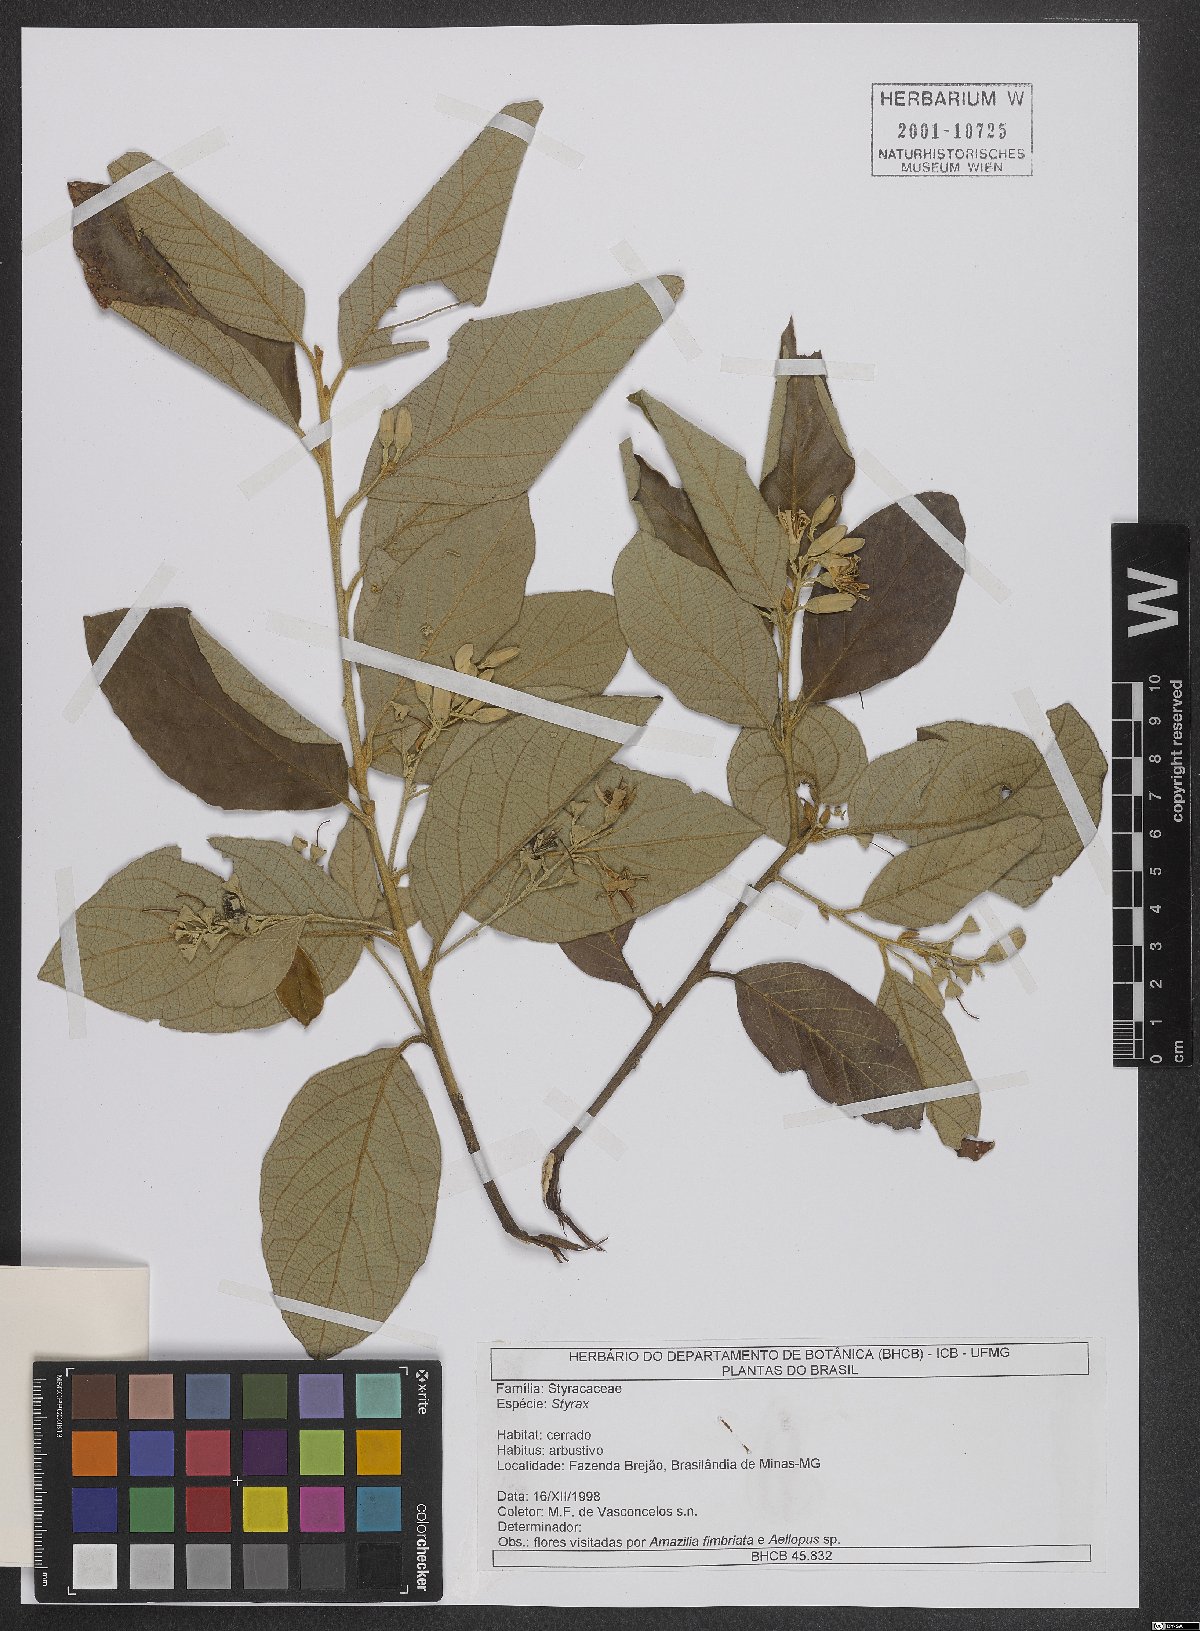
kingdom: Plantae
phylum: Tracheophyta
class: Magnoliopsida
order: Ericales
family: Styracaceae
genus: Styrax
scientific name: Styrax
